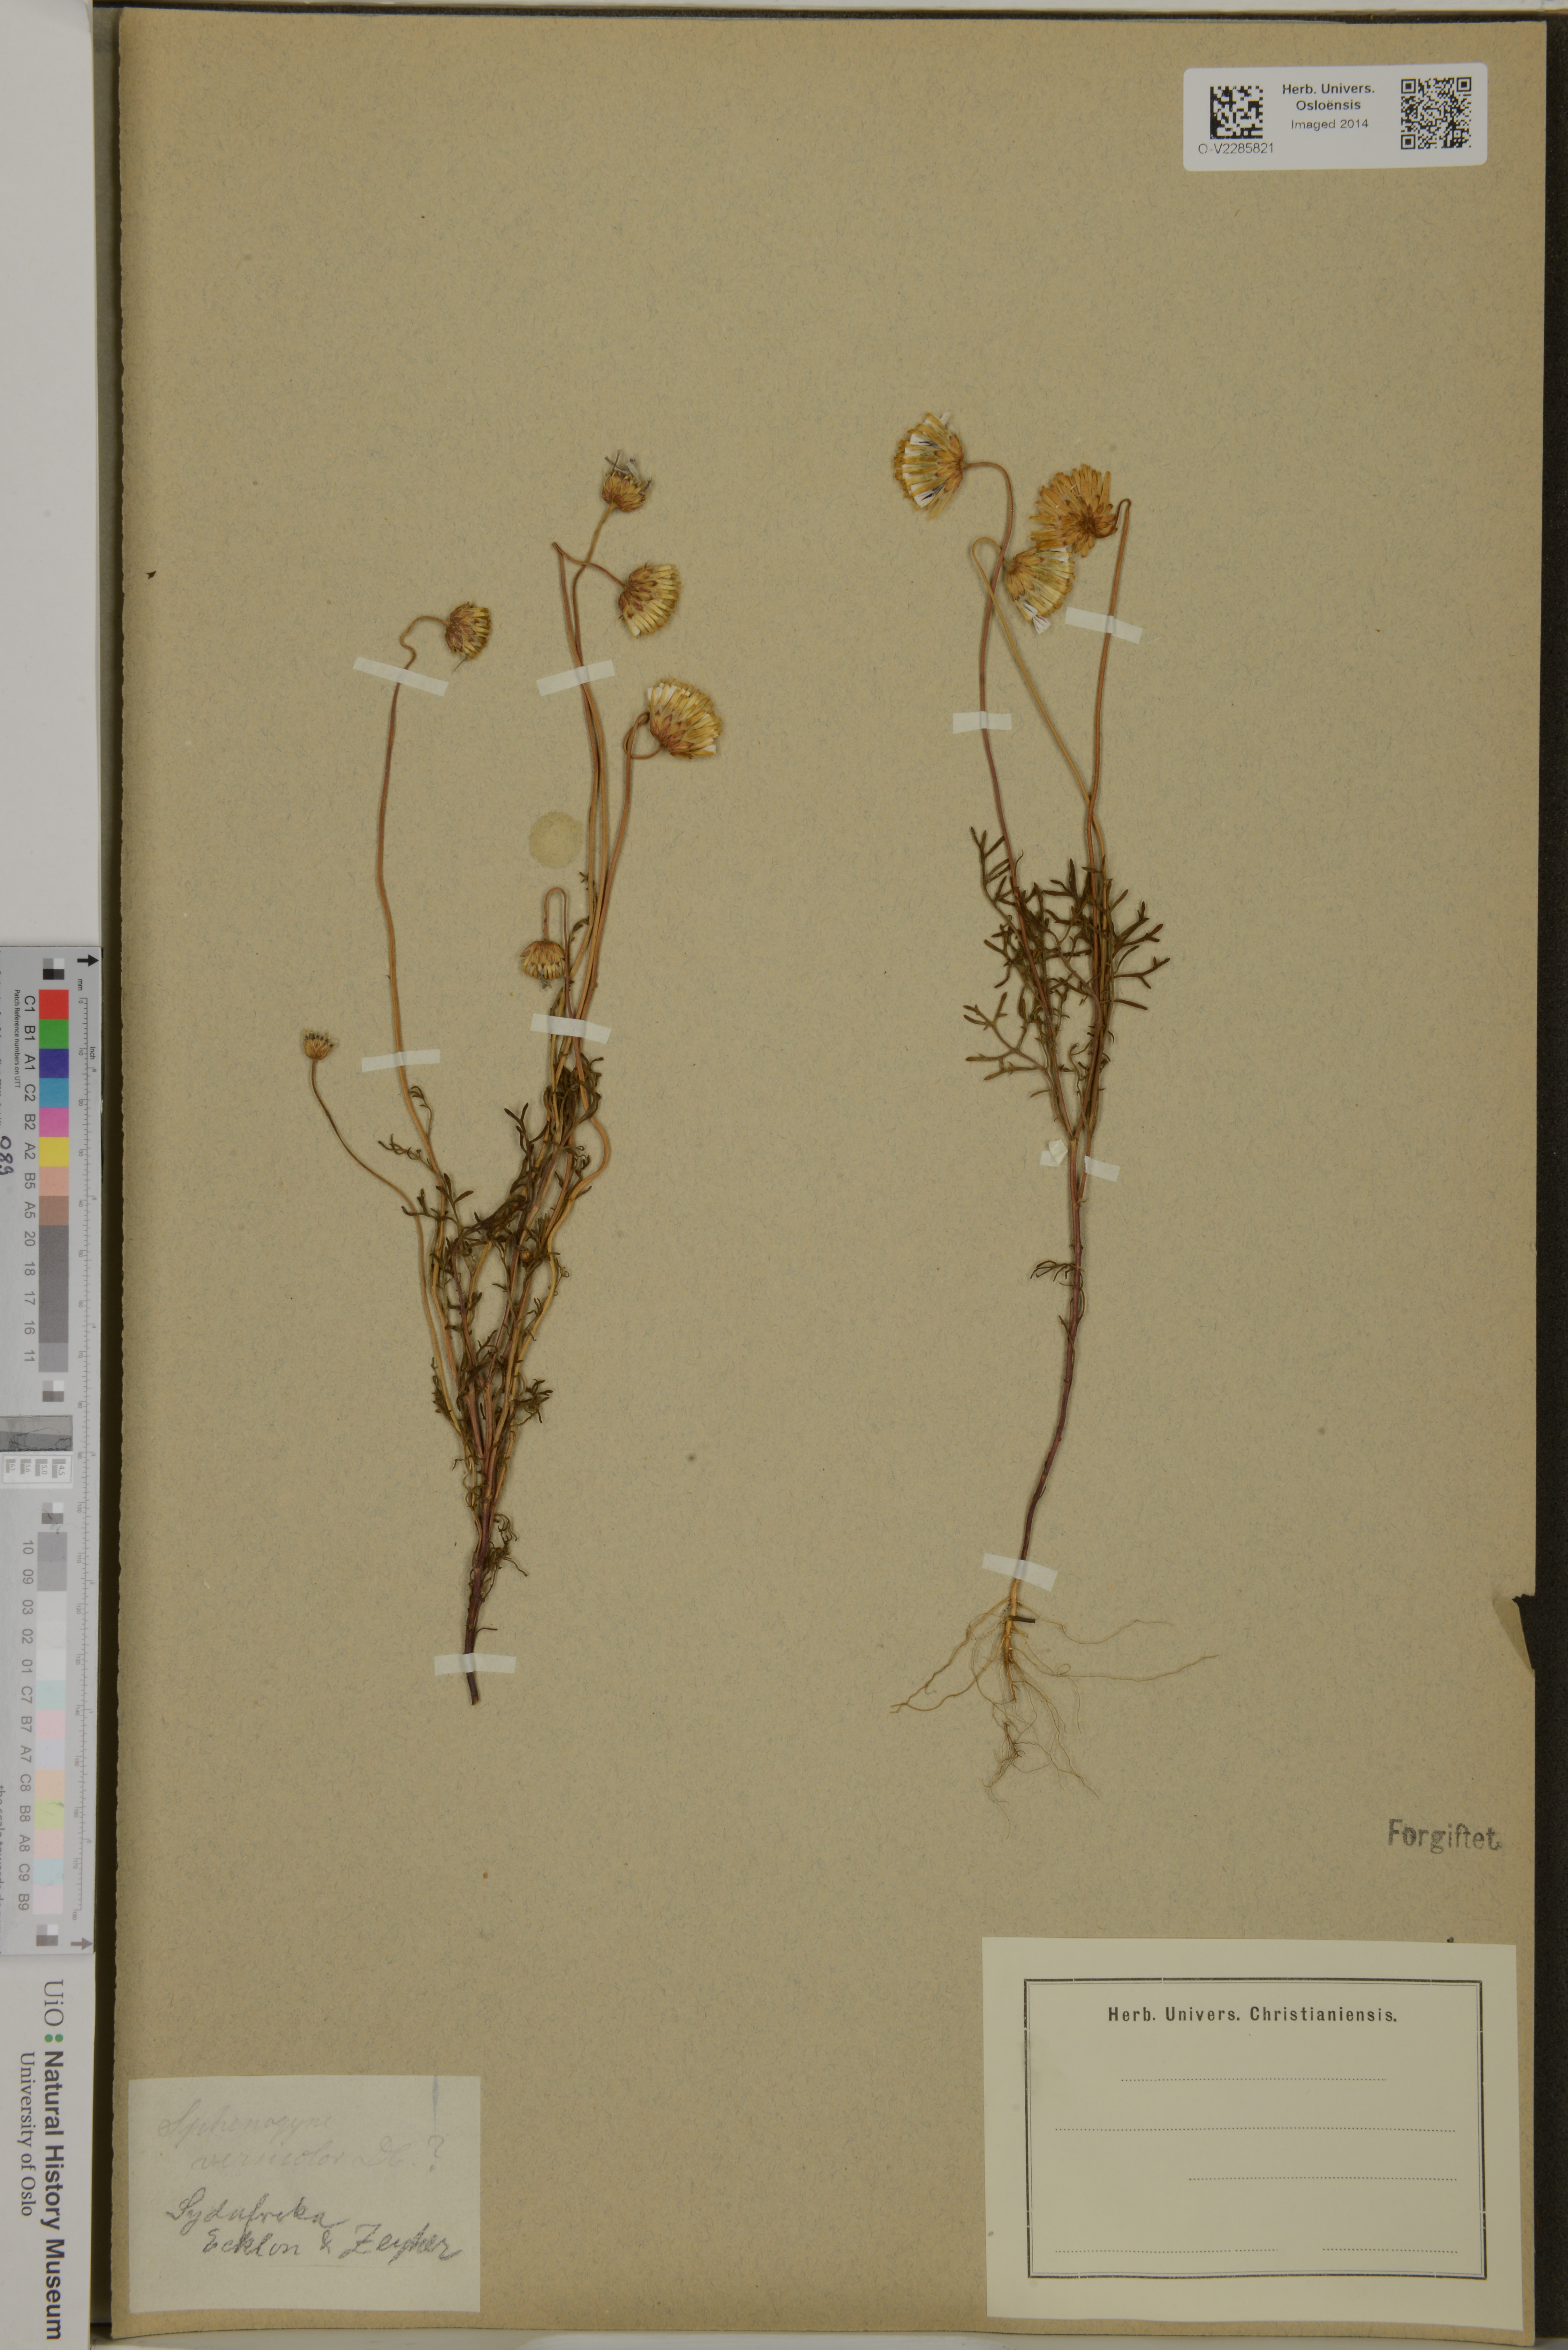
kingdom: Plantae
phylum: Tracheophyta
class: Magnoliopsida
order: Asterales
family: Asteraceae
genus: Ursinia
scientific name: Ursinia
